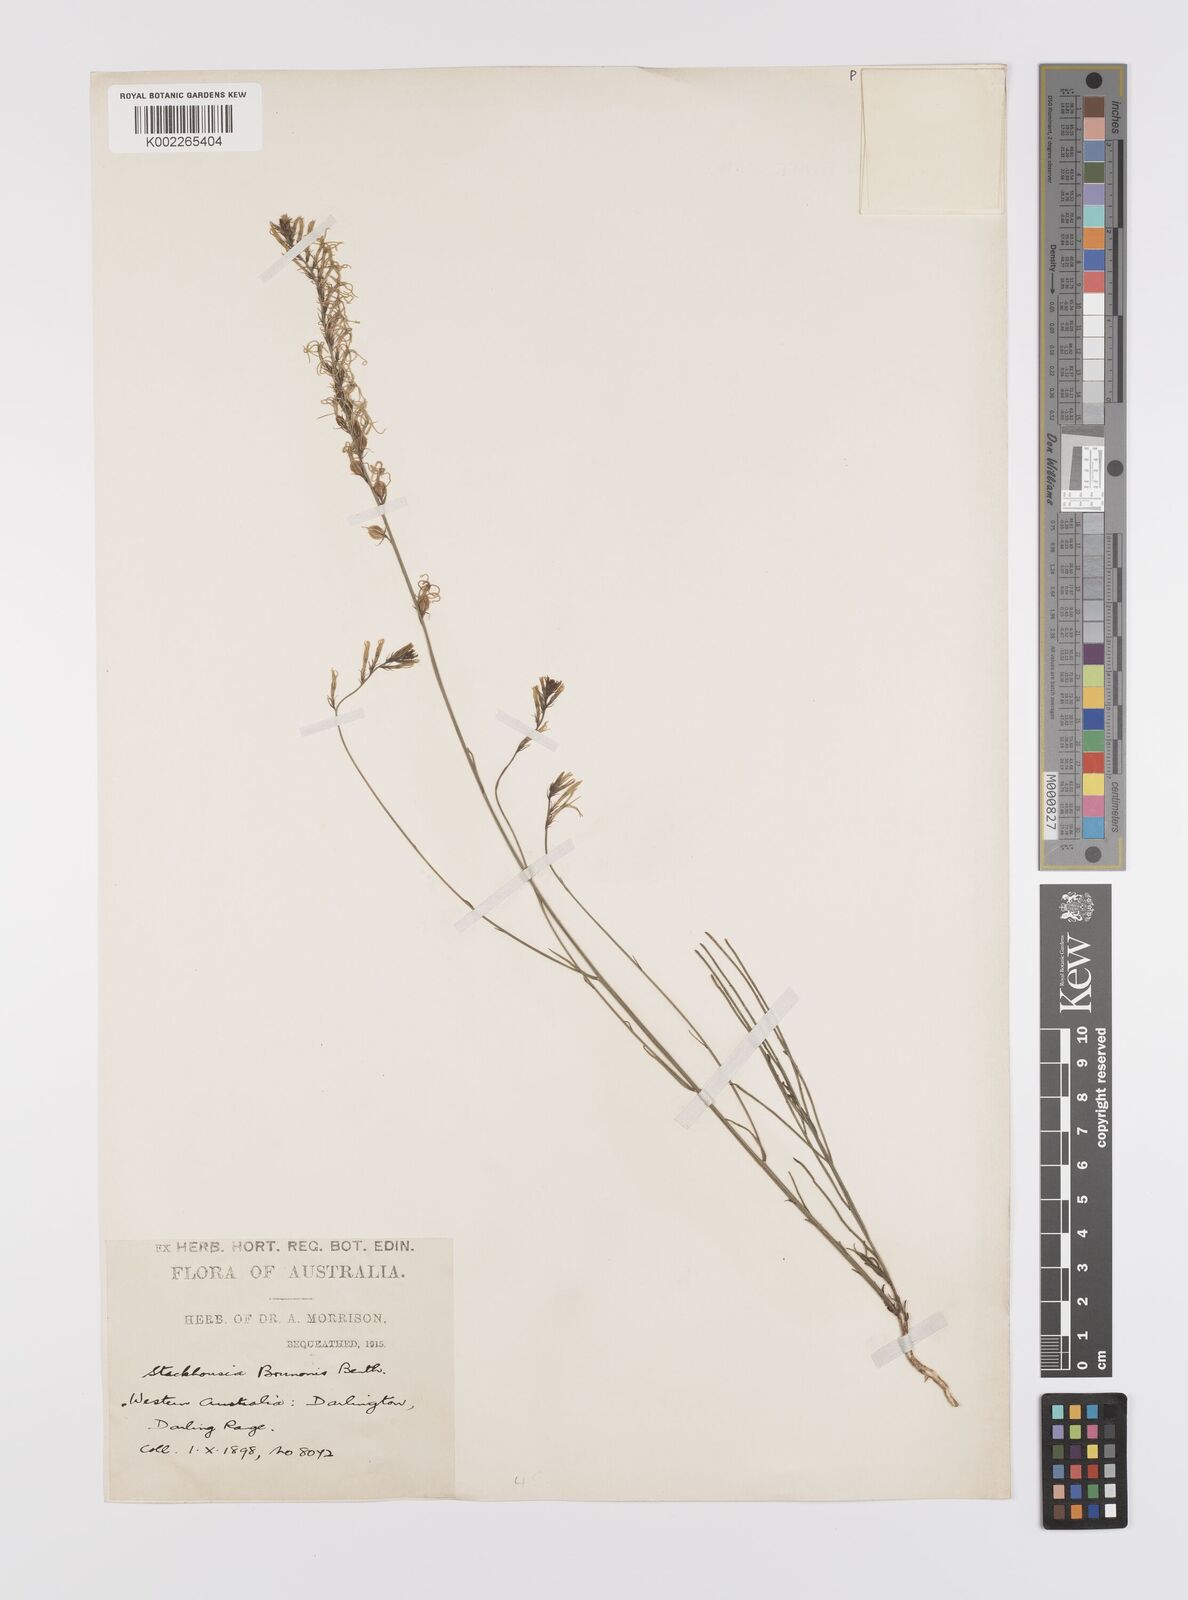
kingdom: Plantae
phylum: Tracheophyta
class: Magnoliopsida
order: Celastrales
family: Celastraceae
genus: Tripterococcus
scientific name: Tripterococcus brunonis
